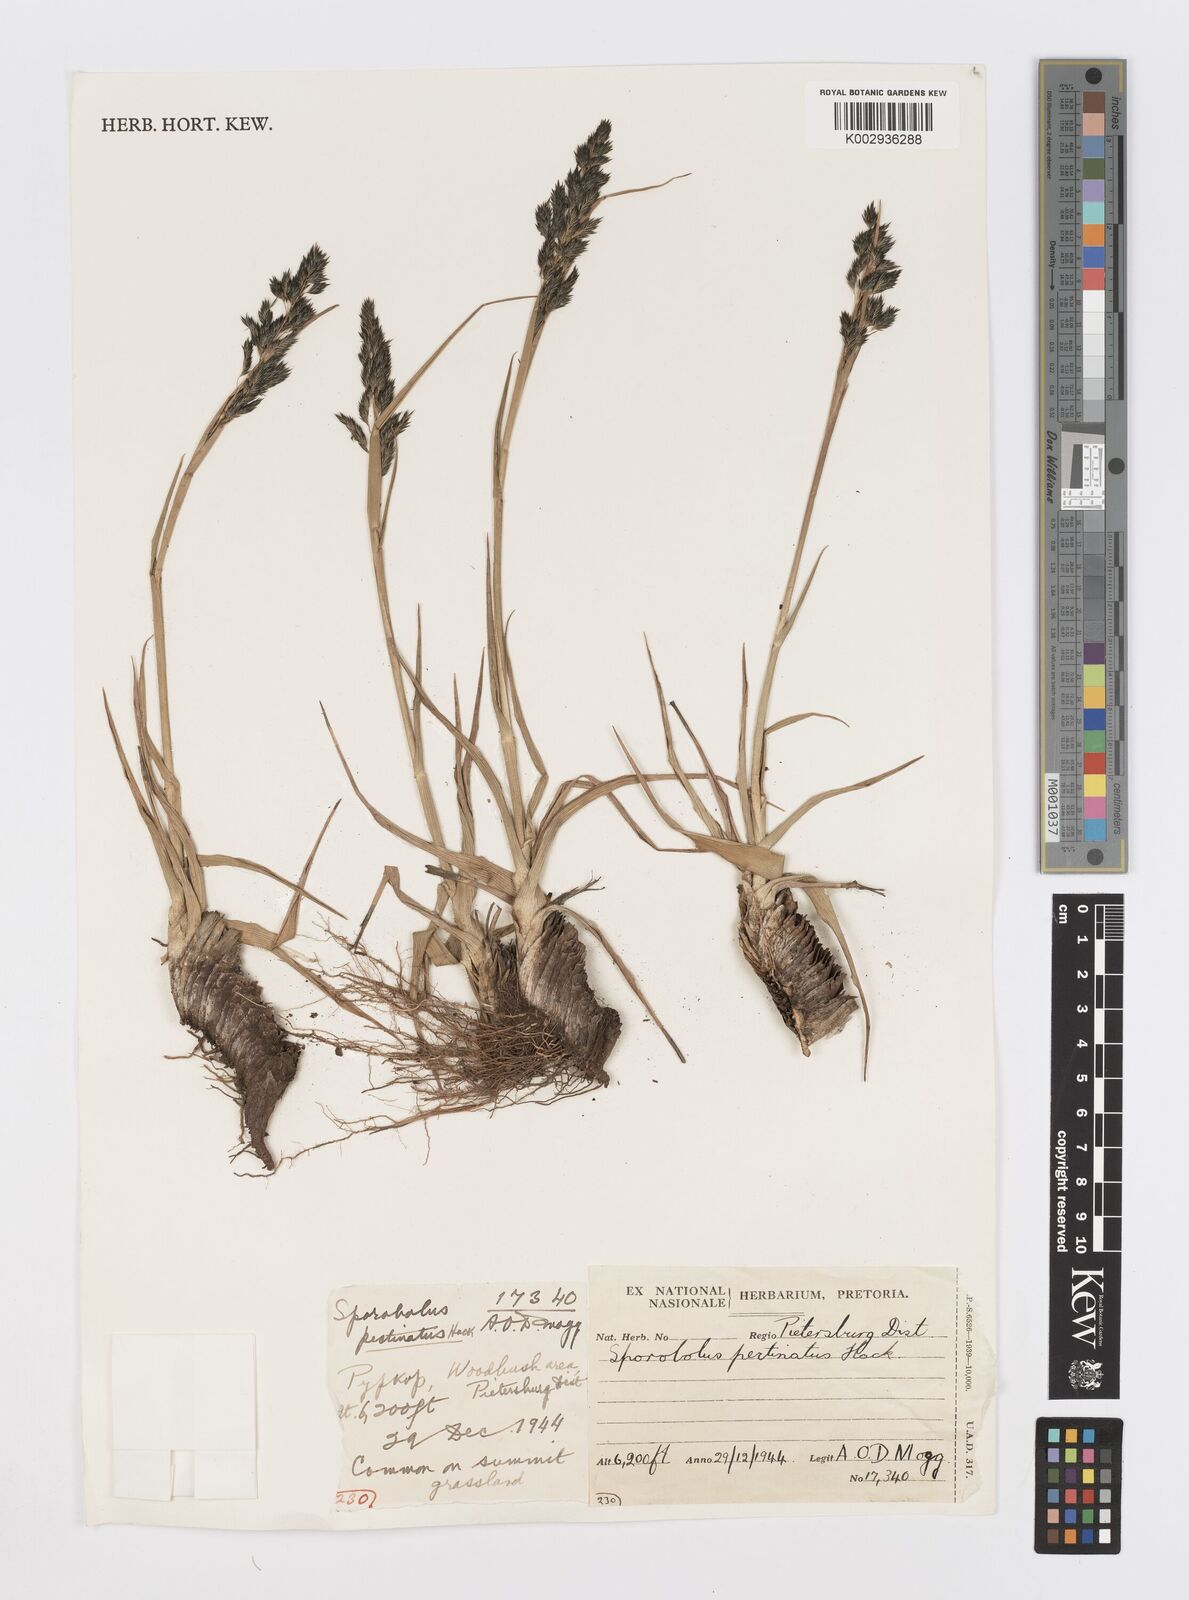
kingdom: Plantae
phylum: Tracheophyta
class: Liliopsida
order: Poales
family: Poaceae
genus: Sporobolus
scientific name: Sporobolus pectinatus
